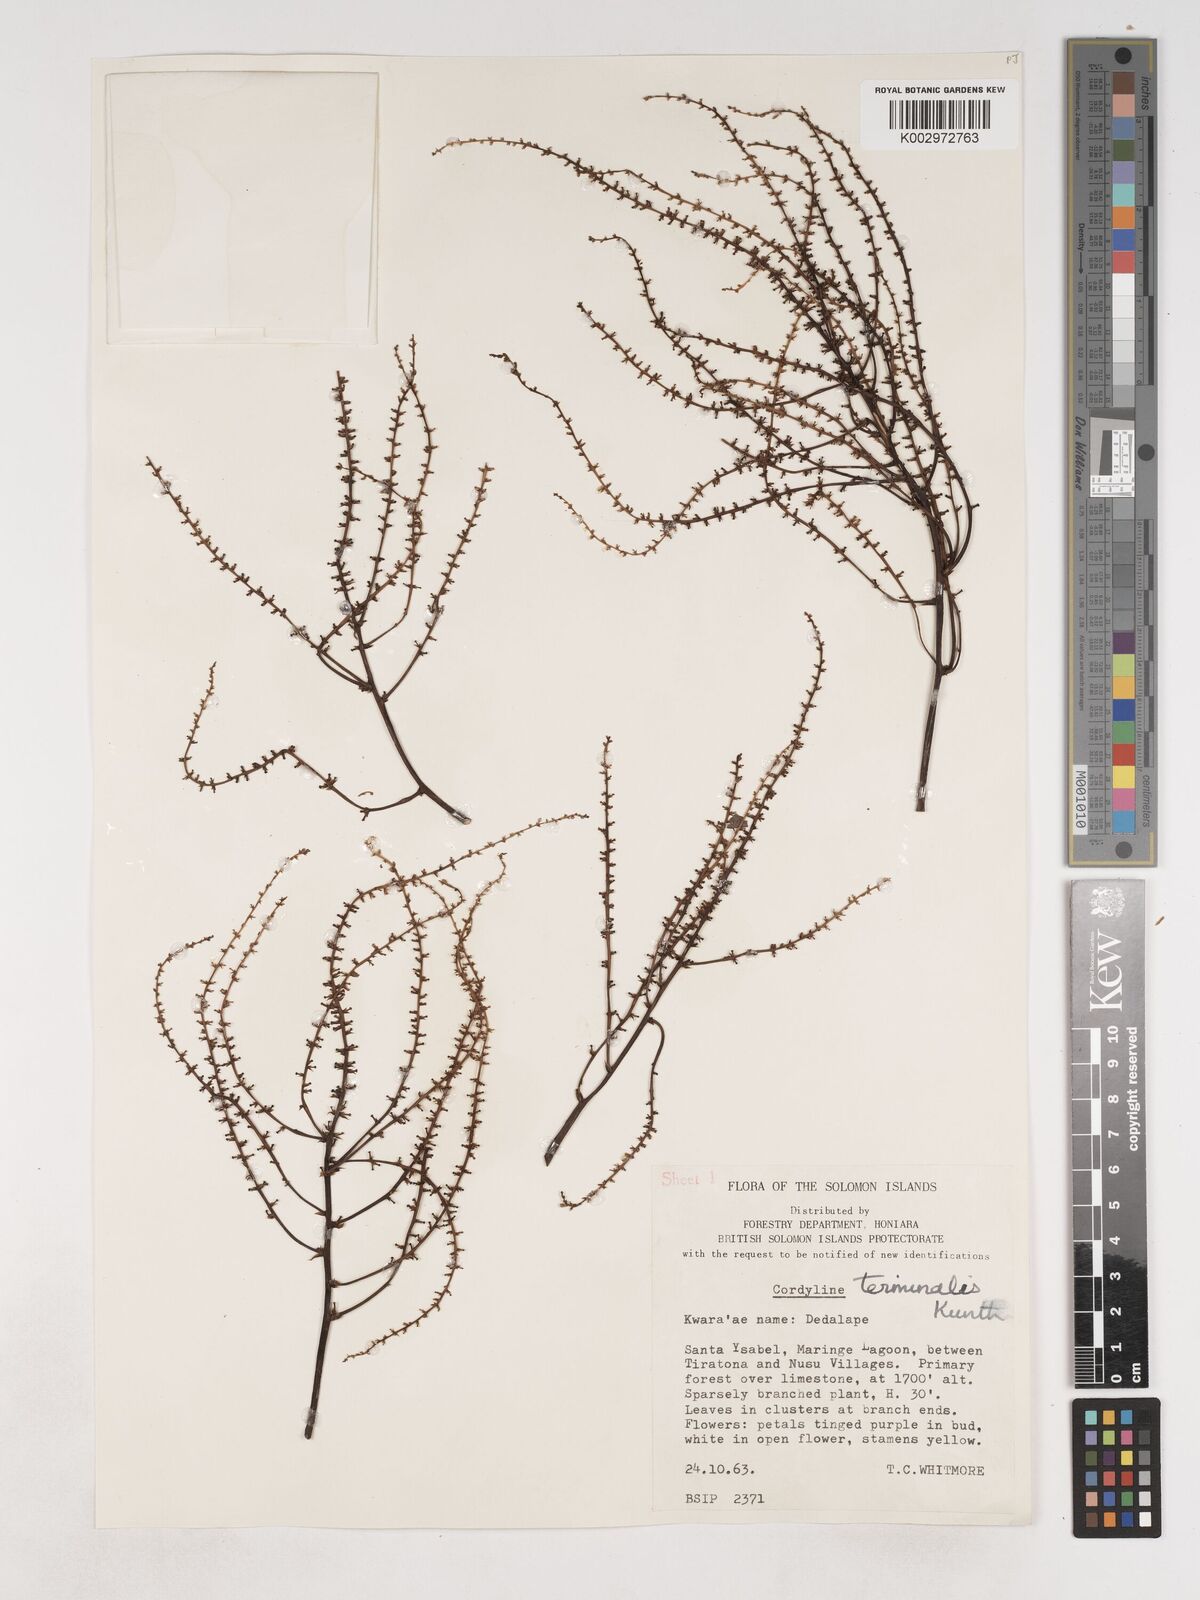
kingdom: Plantae
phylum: Tracheophyta
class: Liliopsida
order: Asparagales
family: Asparagaceae
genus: Cordyline
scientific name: Cordyline fruticosa
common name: Good-luck-plant
